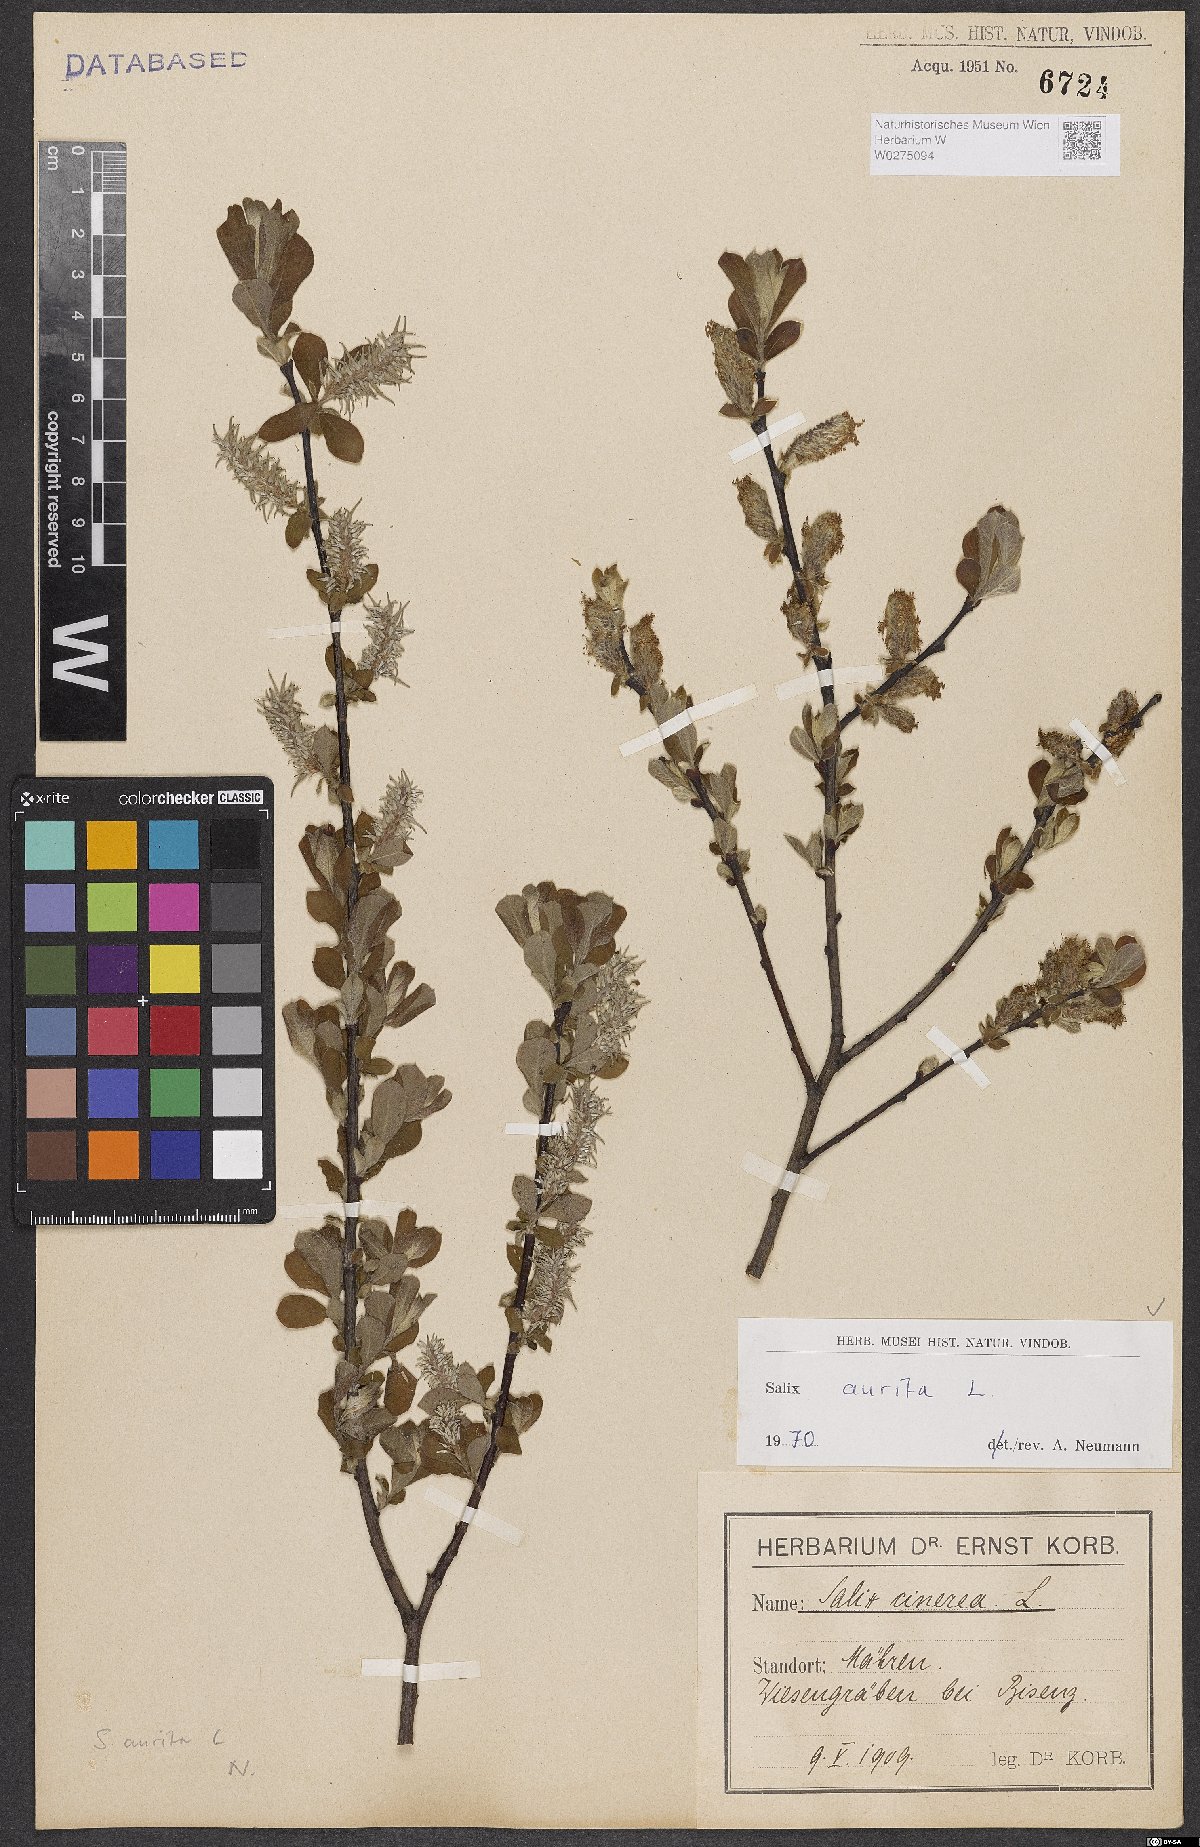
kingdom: Plantae
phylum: Tracheophyta
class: Magnoliopsida
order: Malpighiales
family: Salicaceae
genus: Salix
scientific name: Salix aurita
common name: Eared willow
